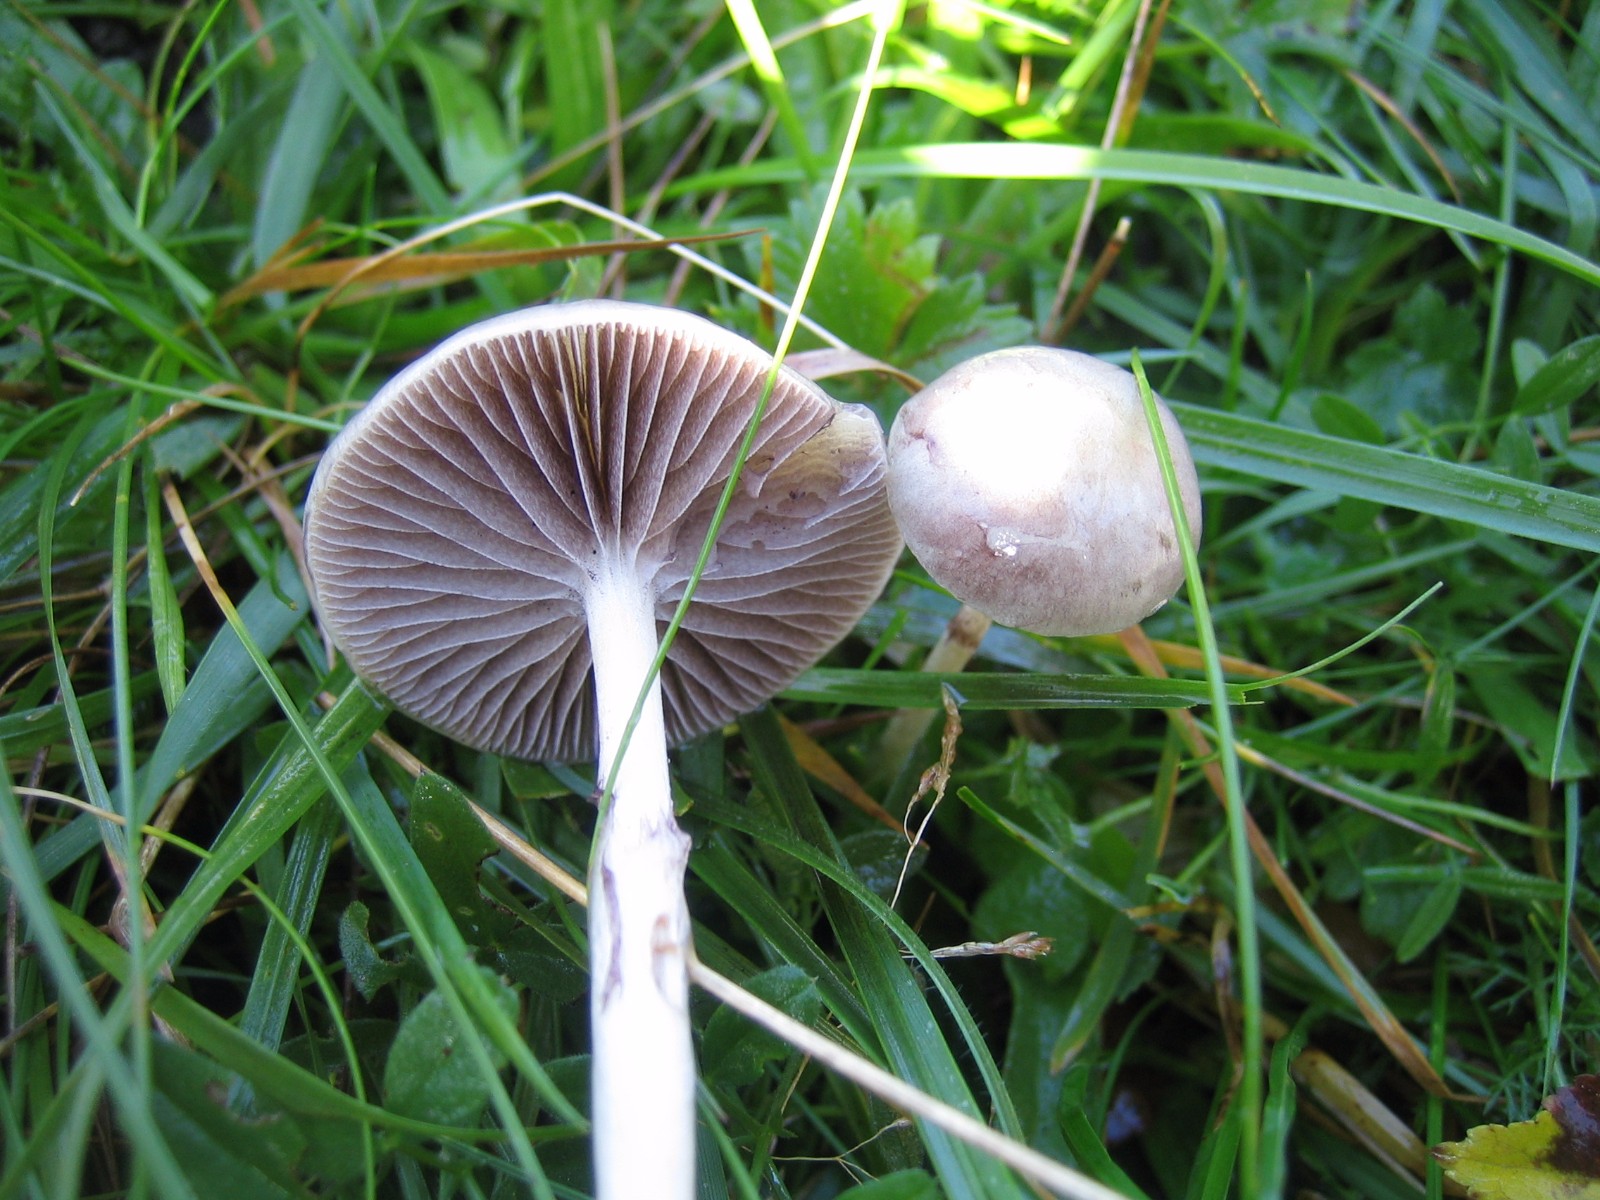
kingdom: Fungi
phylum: Basidiomycota
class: Agaricomycetes
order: Agaricales
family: Strophariaceae
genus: Protostropharia
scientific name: Protostropharia semiglobata
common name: halvkugleformet bredblad
